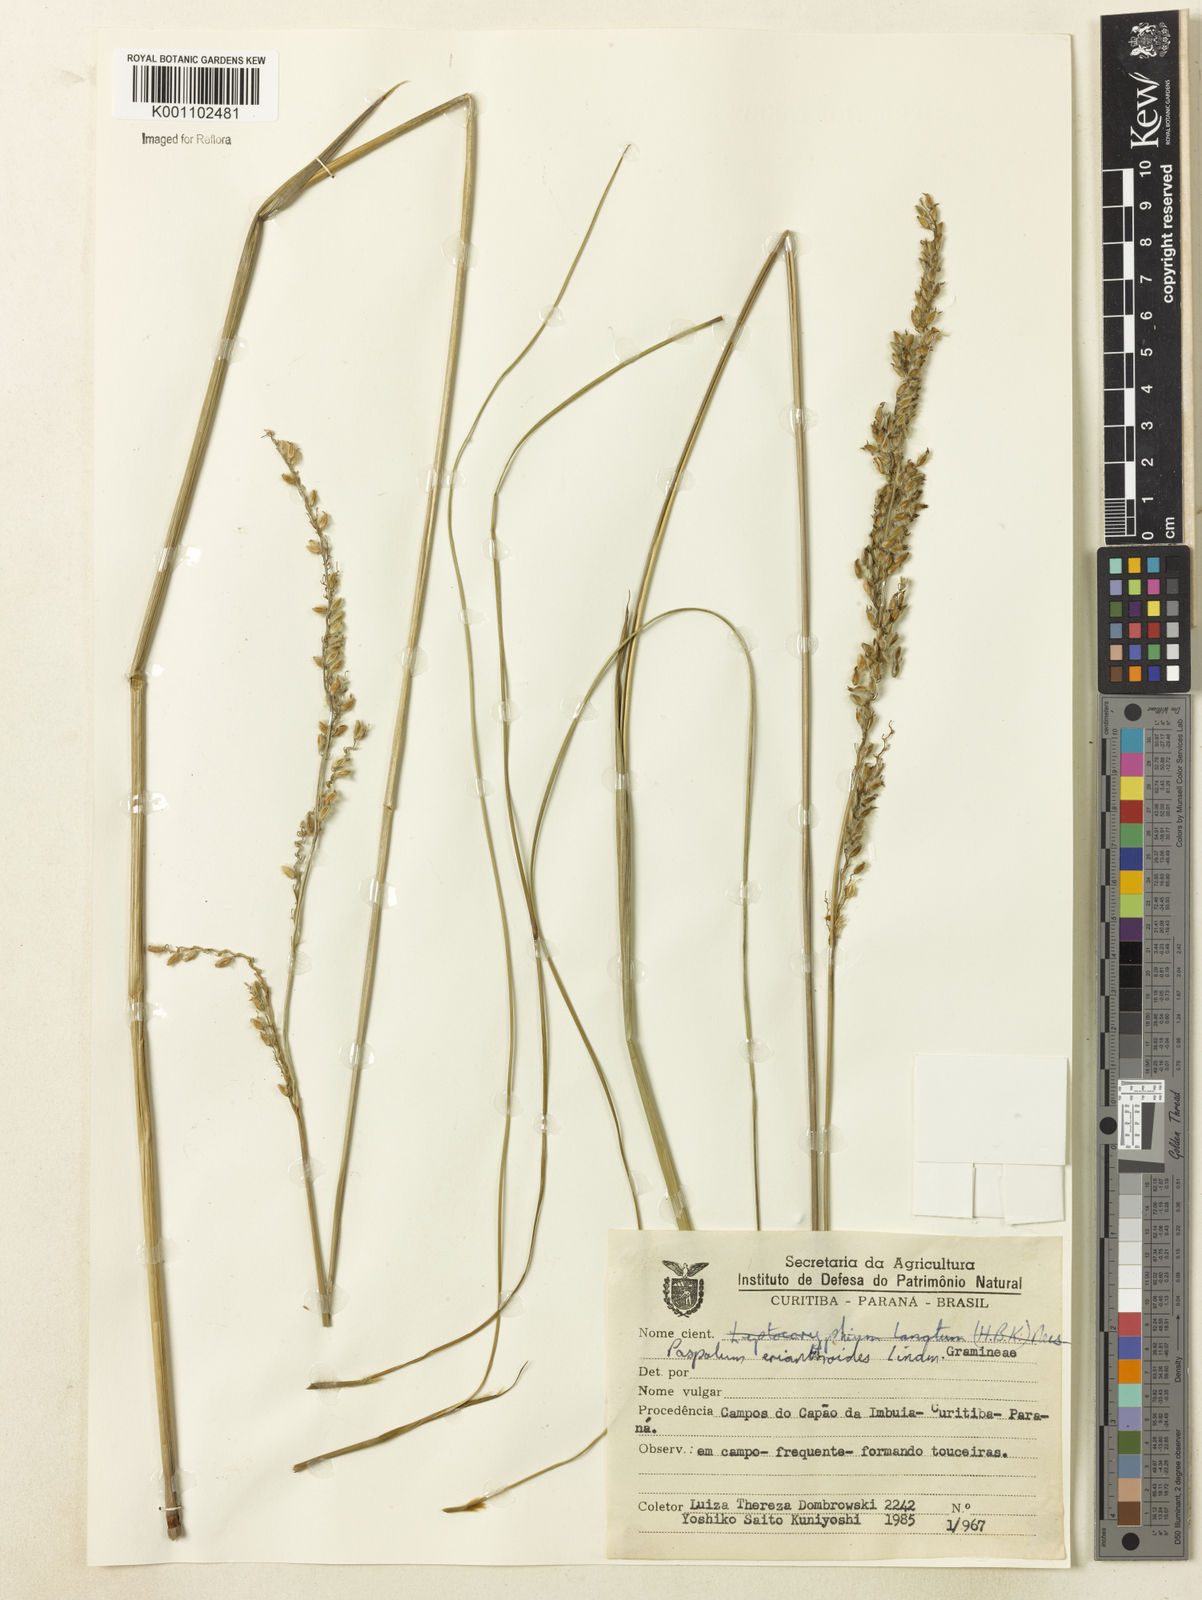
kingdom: Plantae
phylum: Tracheophyta
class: Liliopsida
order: Poales
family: Poaceae
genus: Paspalum
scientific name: Paspalum erianthoides
